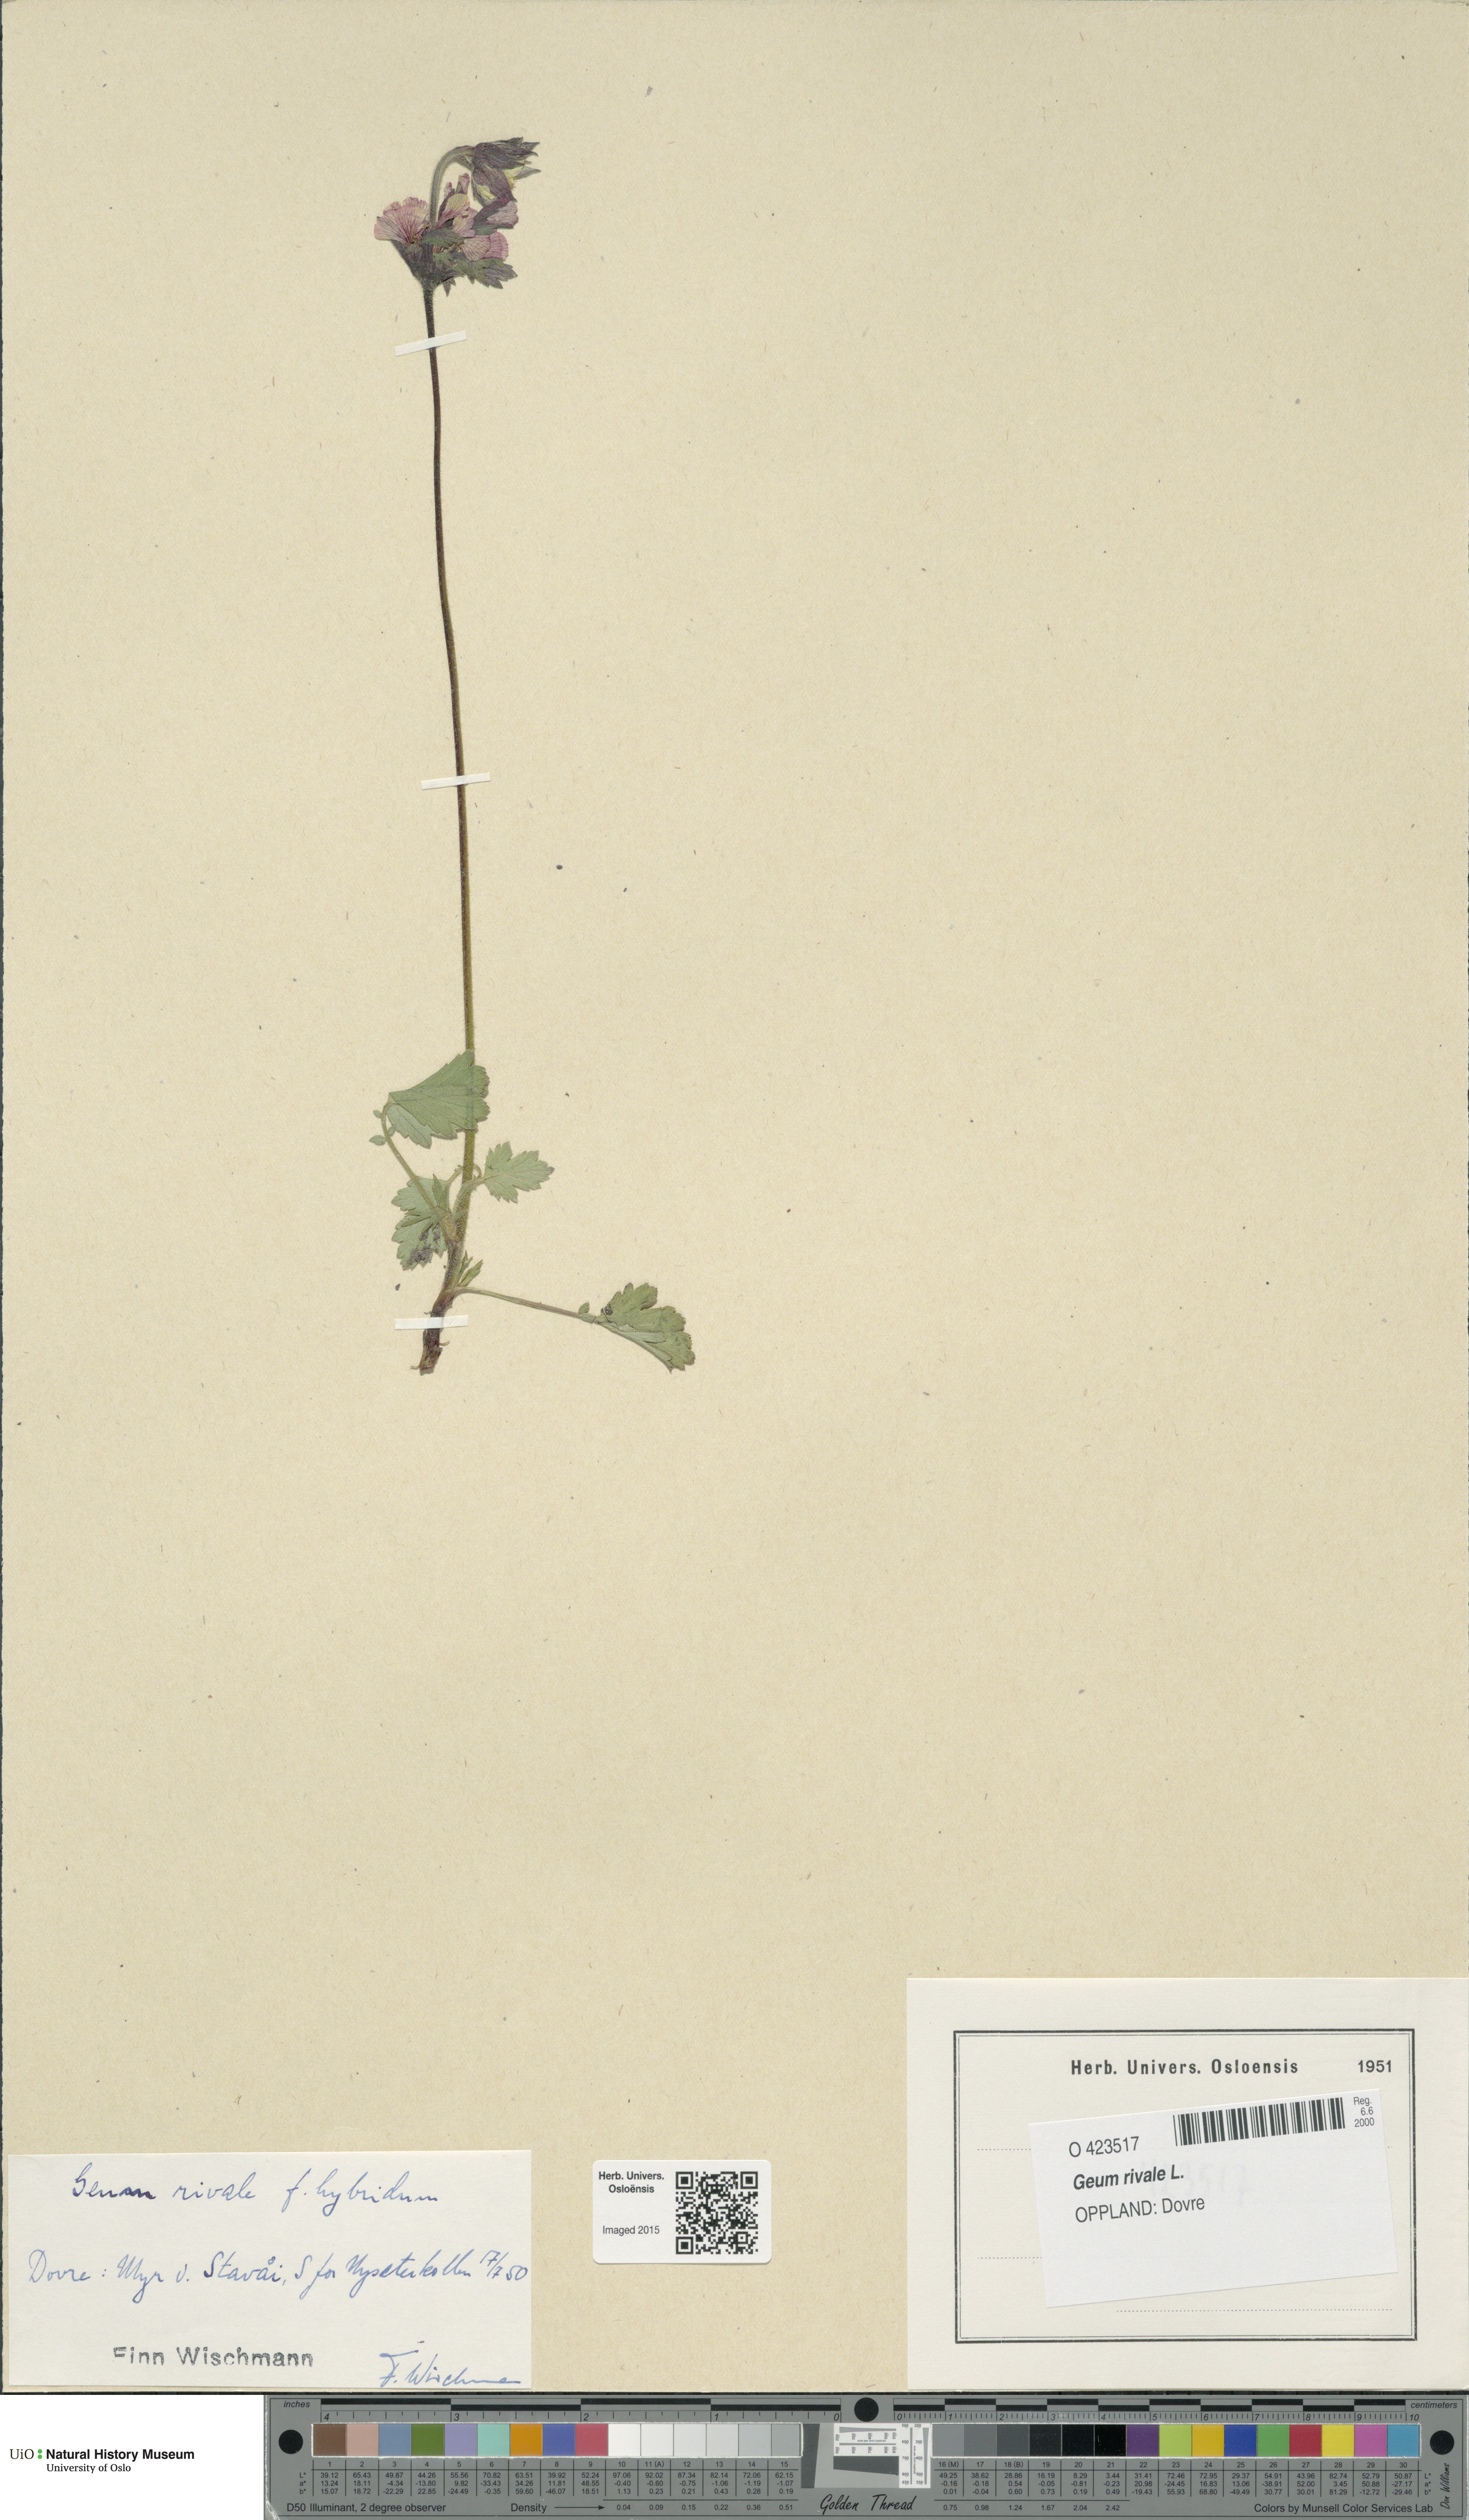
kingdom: Plantae
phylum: Tracheophyta
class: Magnoliopsida
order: Rosales
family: Rosaceae
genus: Geum
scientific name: Geum rivale
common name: Water avens
